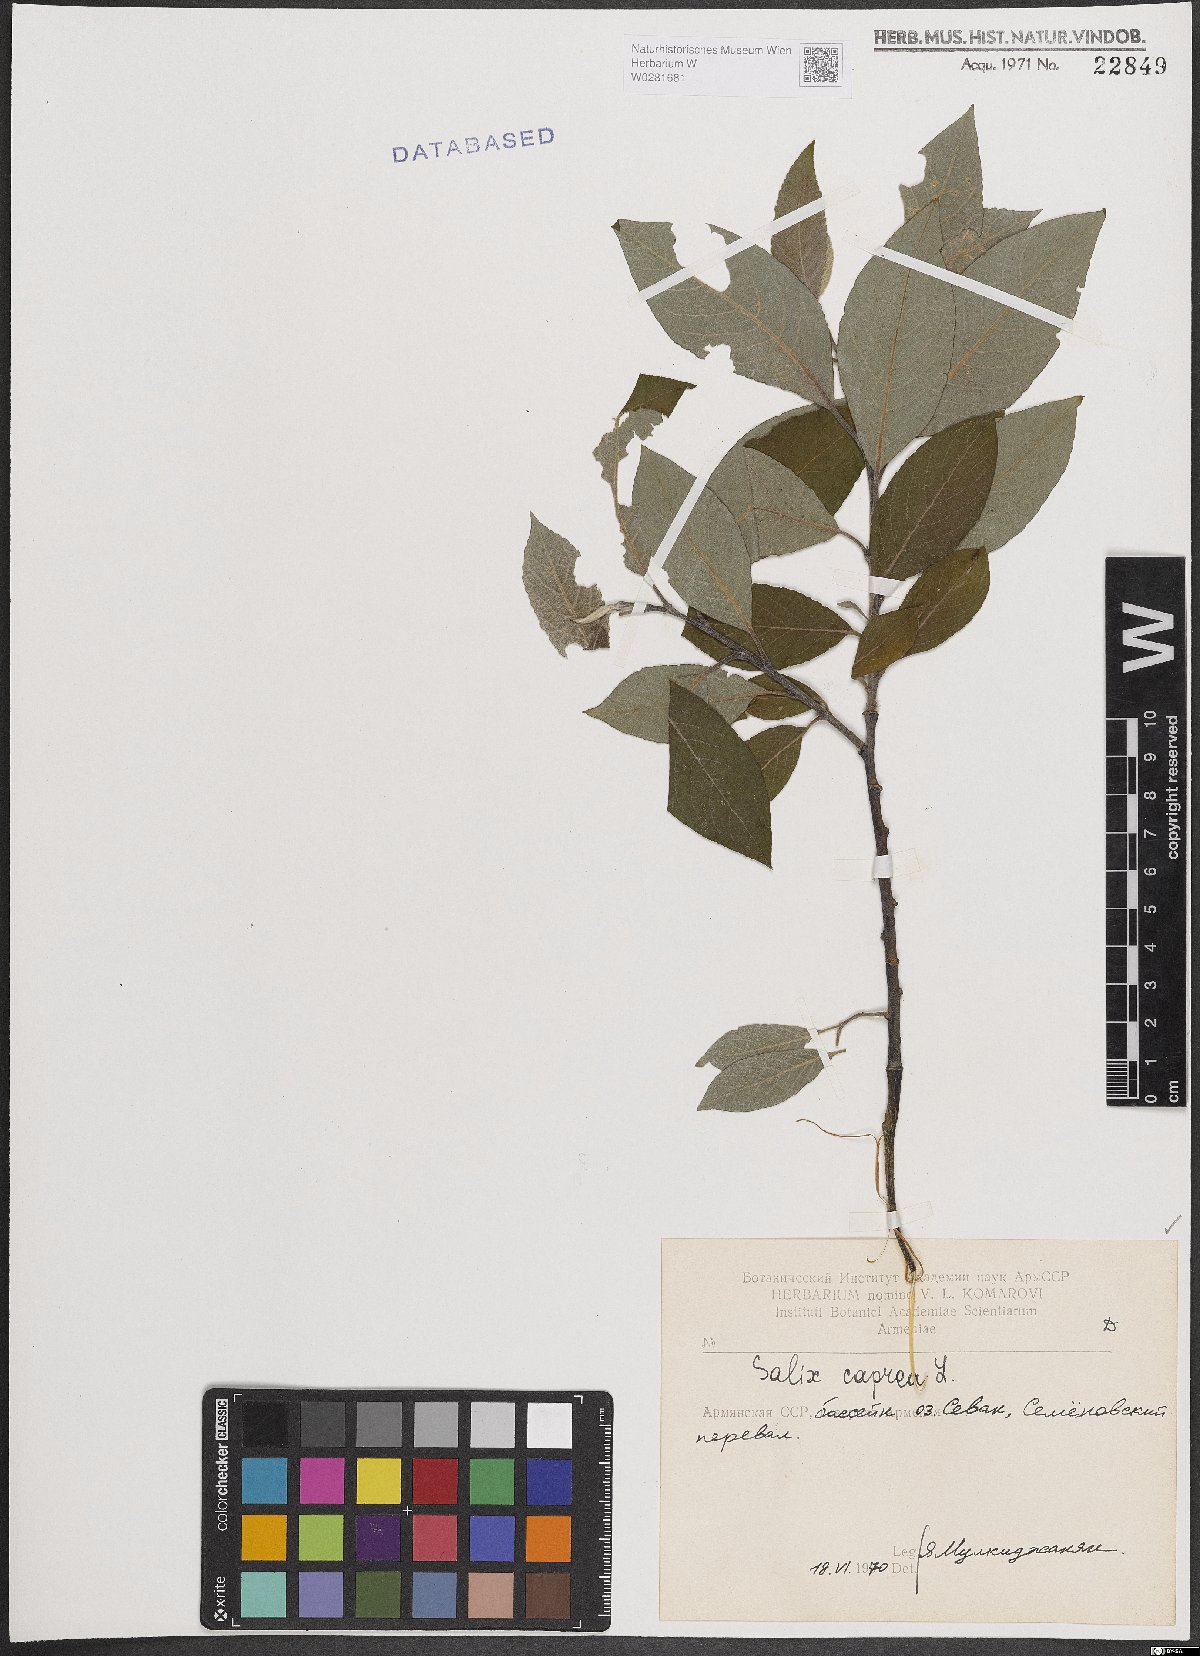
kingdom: Plantae
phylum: Tracheophyta
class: Magnoliopsida
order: Malpighiales
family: Salicaceae
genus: Salix
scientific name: Salix caprea
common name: Goat willow
